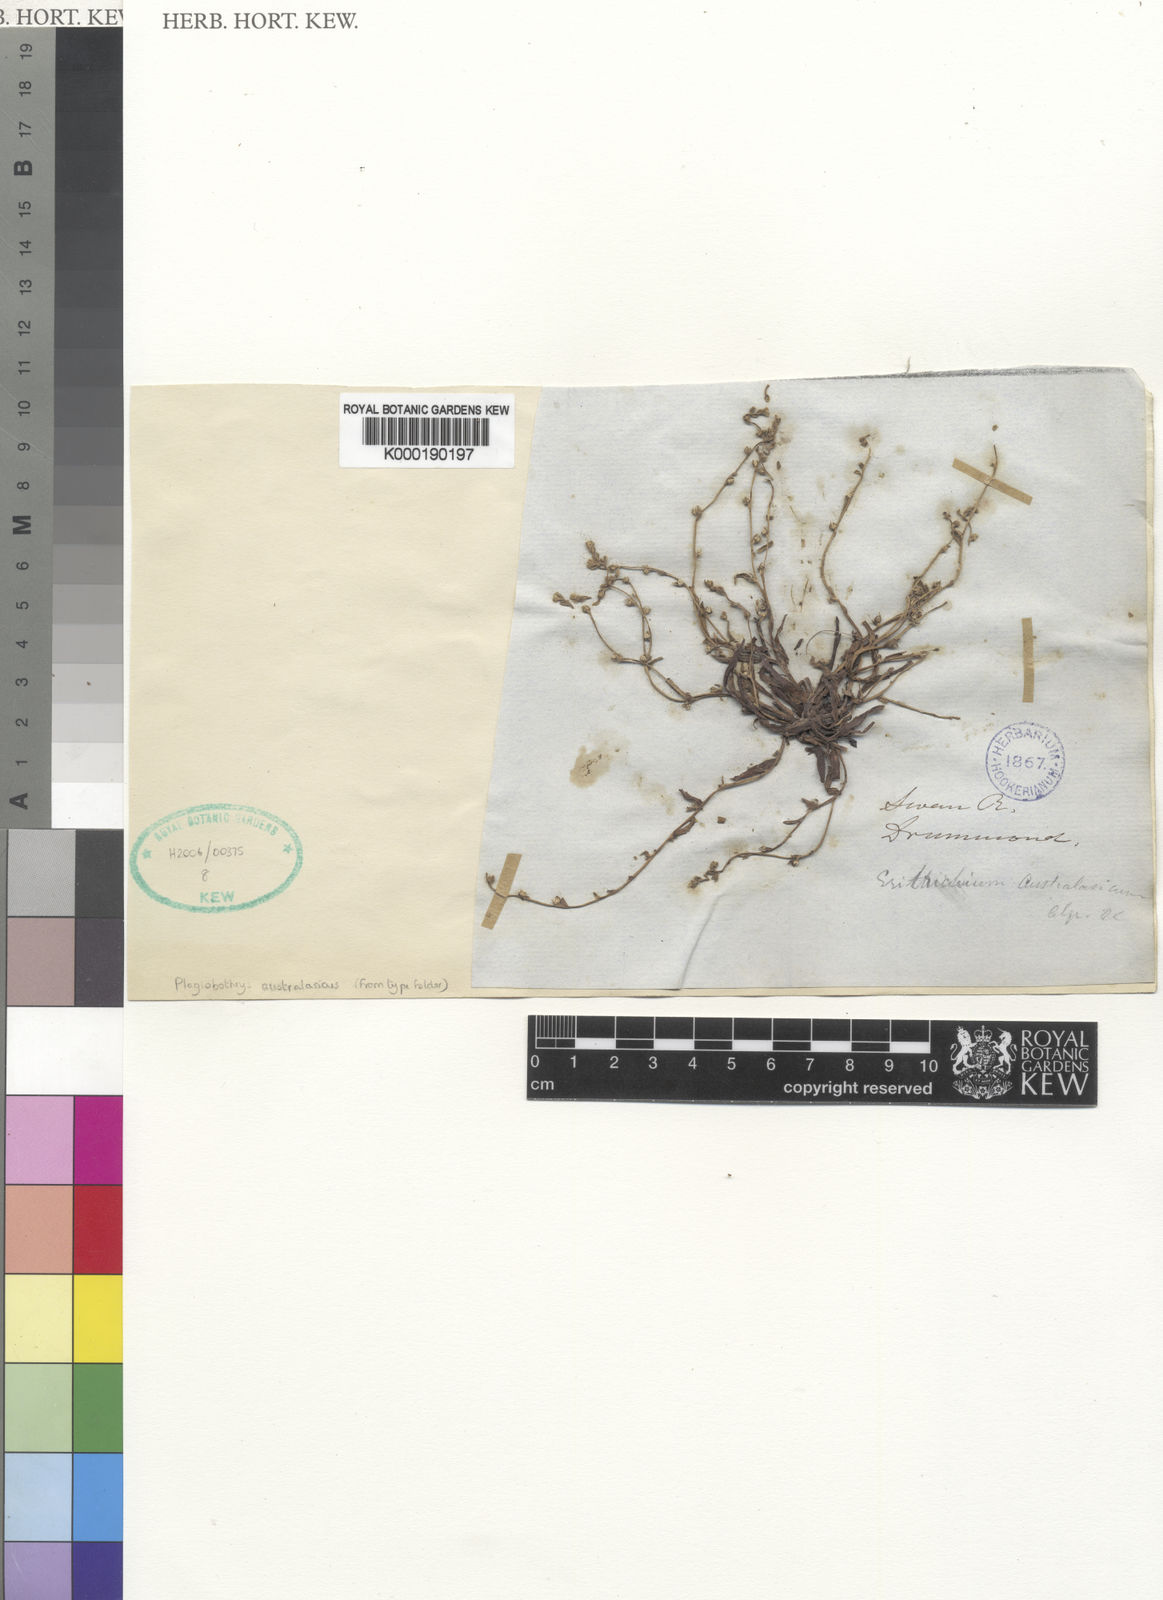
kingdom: Plantae
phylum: Tracheophyta
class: Magnoliopsida
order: Boraginales
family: Boraginaceae
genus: Plagiobothrys
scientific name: Plagiobothrys australasicus
